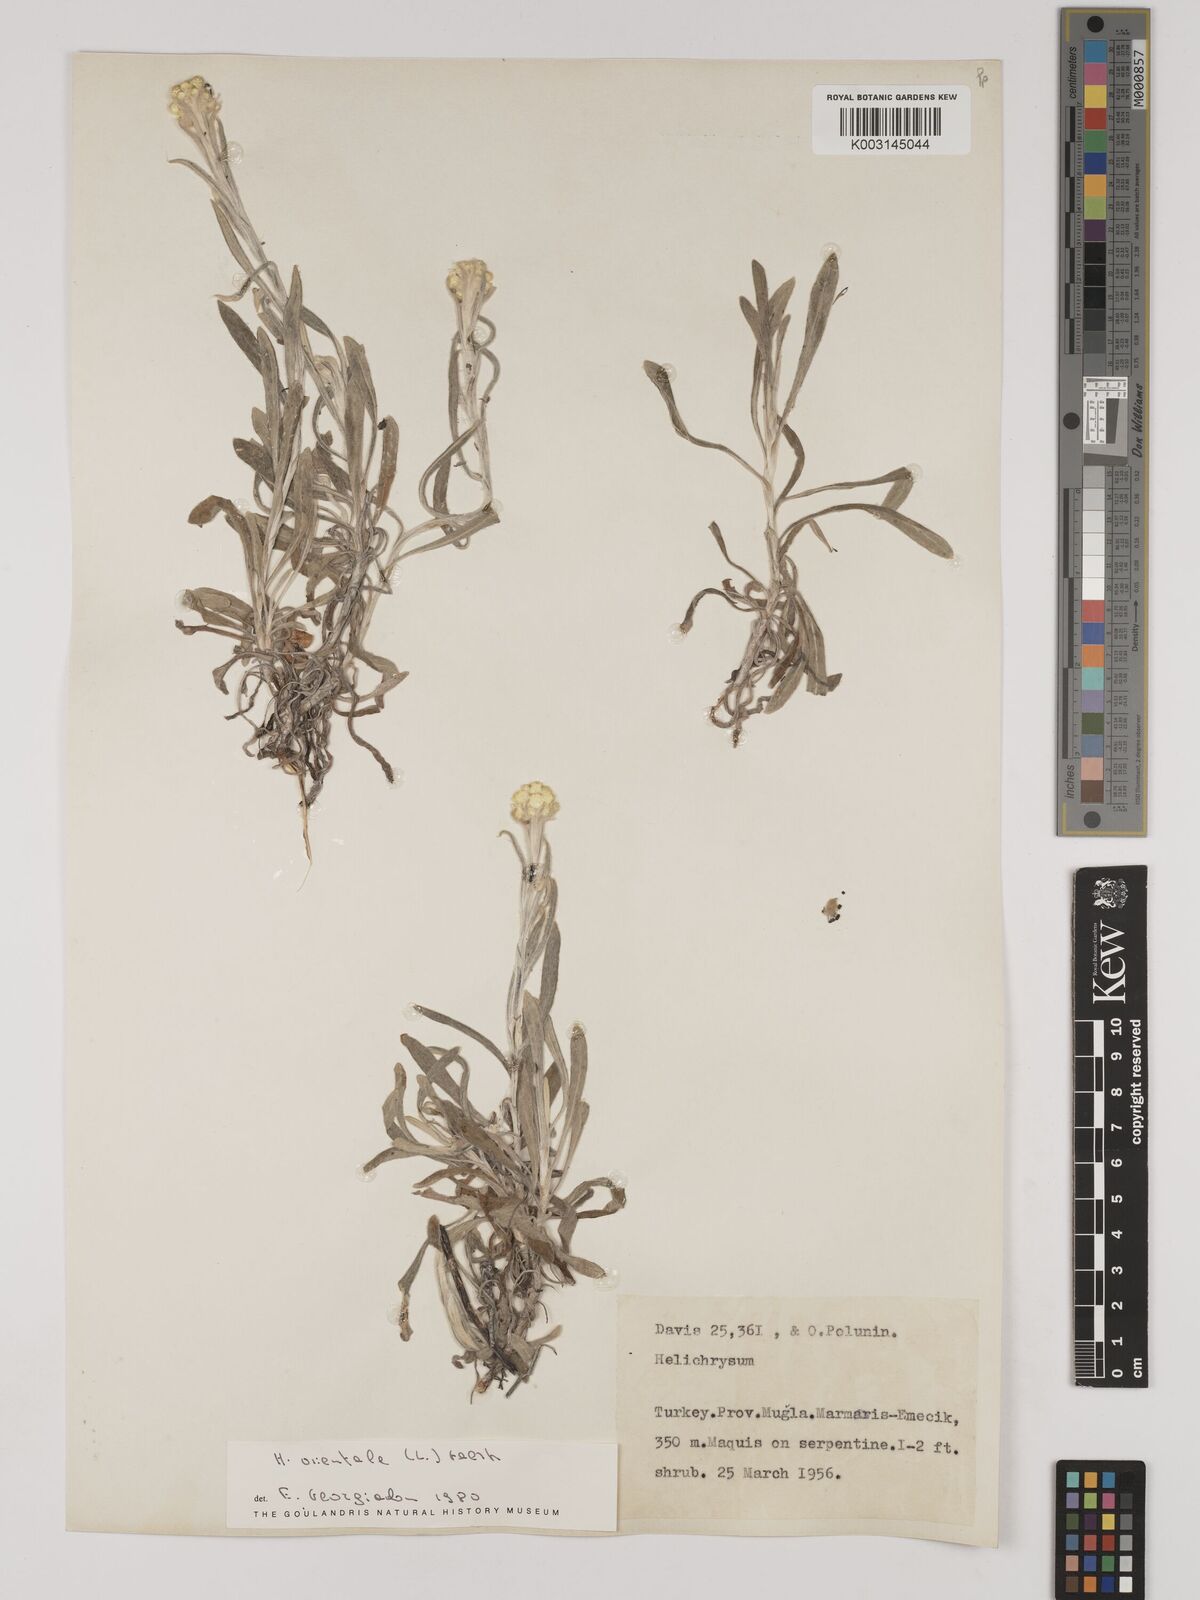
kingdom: Plantae
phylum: Tracheophyta
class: Magnoliopsida
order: Asterales
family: Asteraceae
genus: Helichrysum
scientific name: Helichrysum orientale
